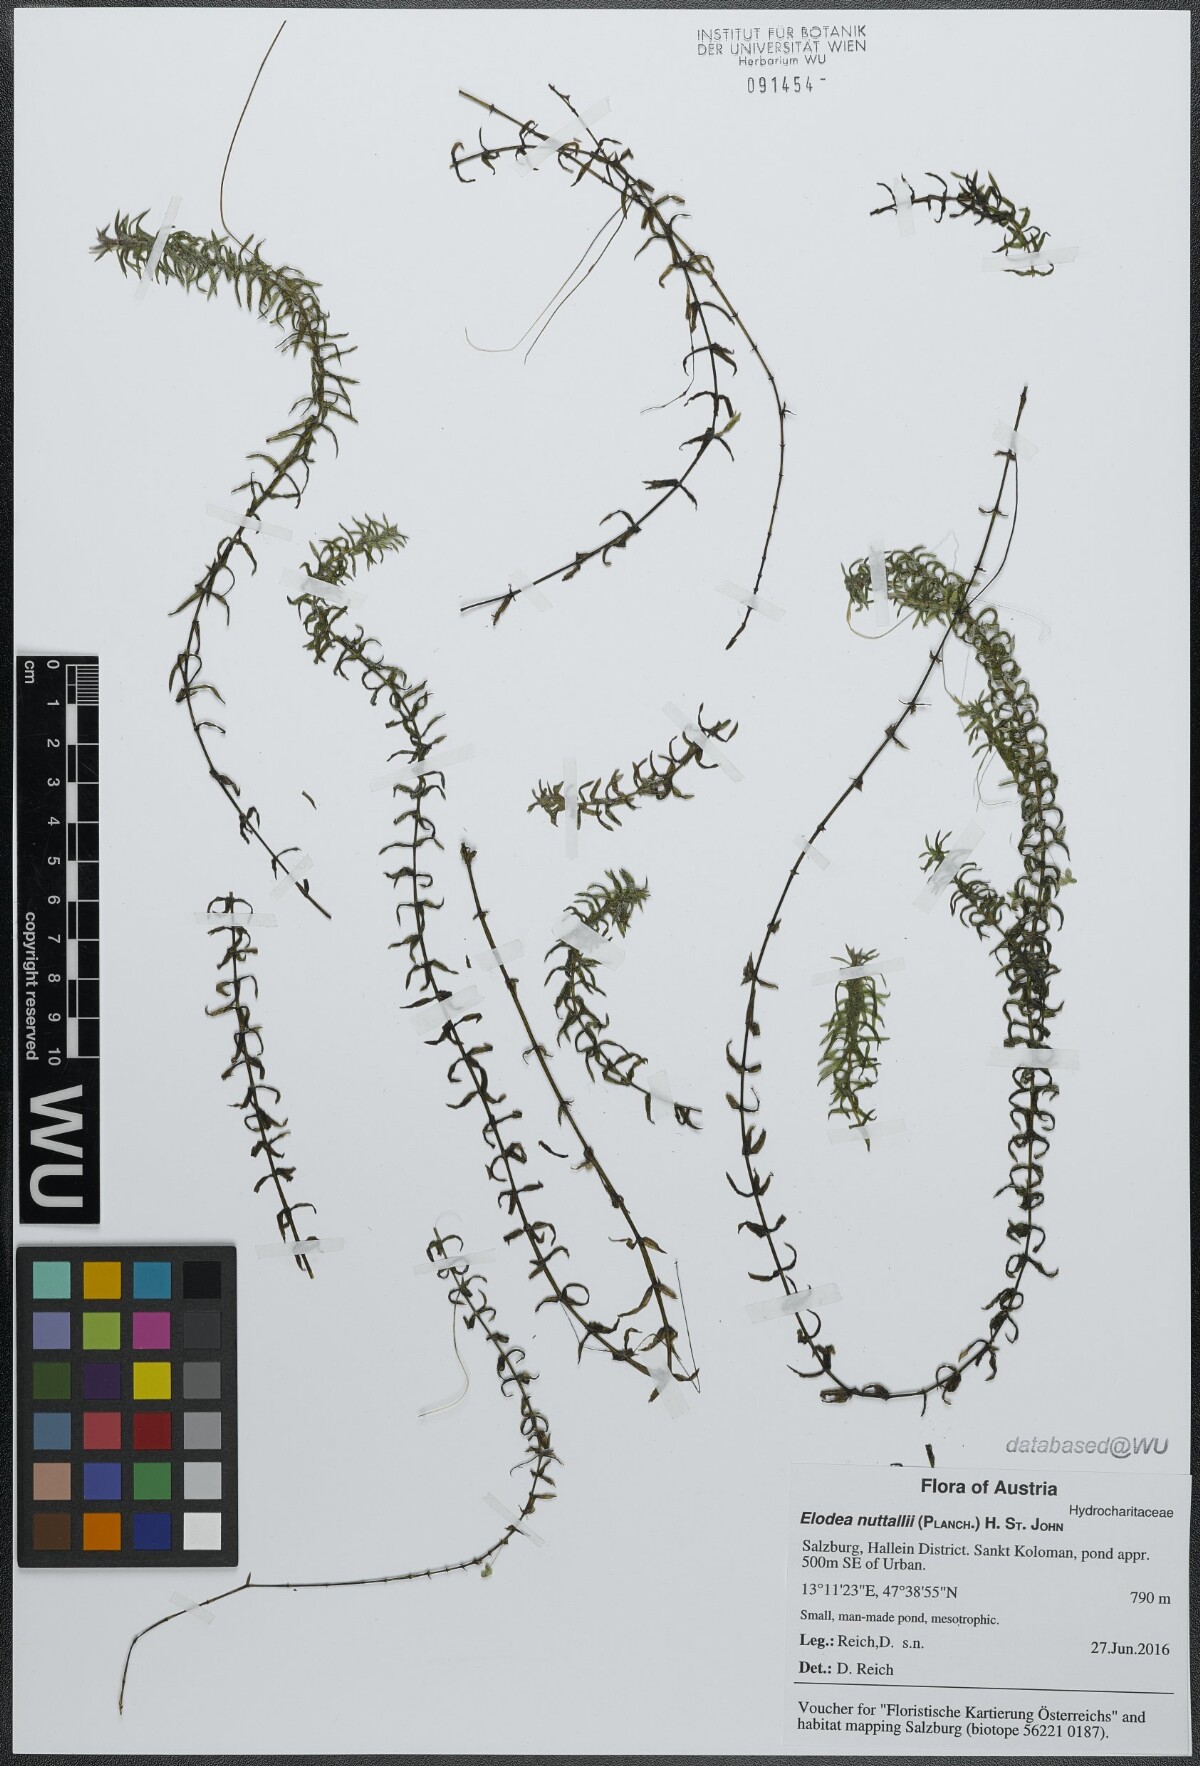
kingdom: Plantae
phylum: Tracheophyta
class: Liliopsida
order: Alismatales
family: Hydrocharitaceae
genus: Elodea
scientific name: Elodea nuttallii
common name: Nuttall's waterweed
